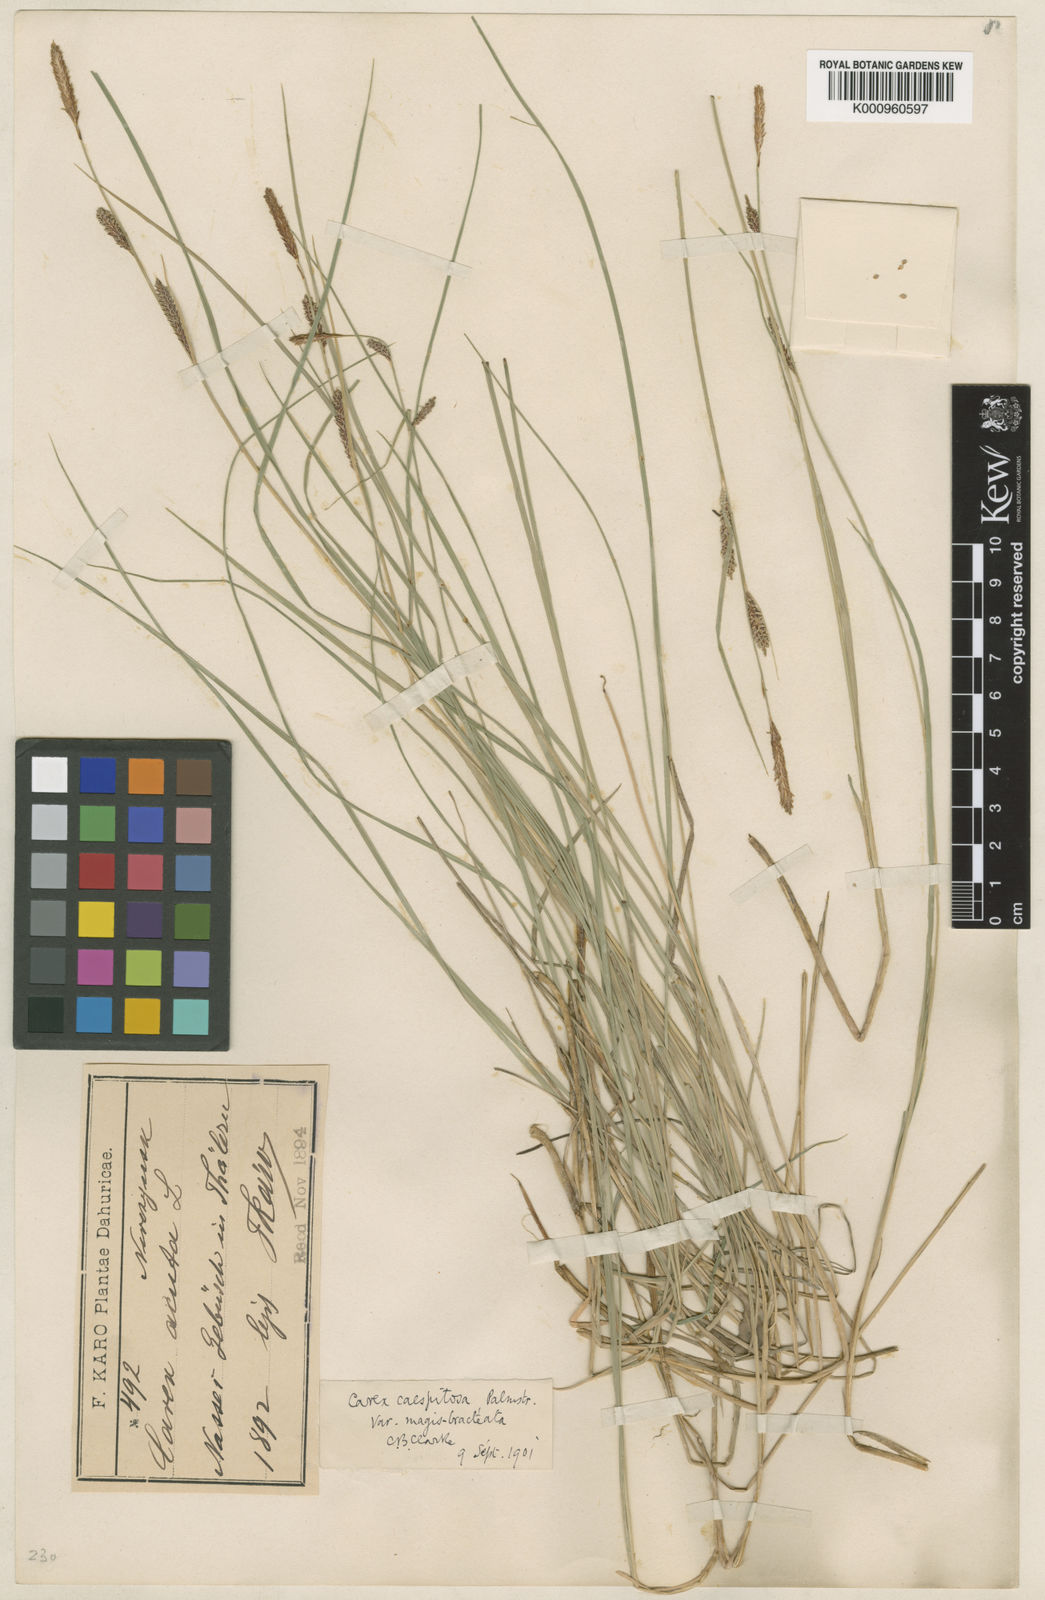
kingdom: Plantae
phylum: Tracheophyta
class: Liliopsida
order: Poales
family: Cyperaceae
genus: Carex
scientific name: Carex cespitosa
